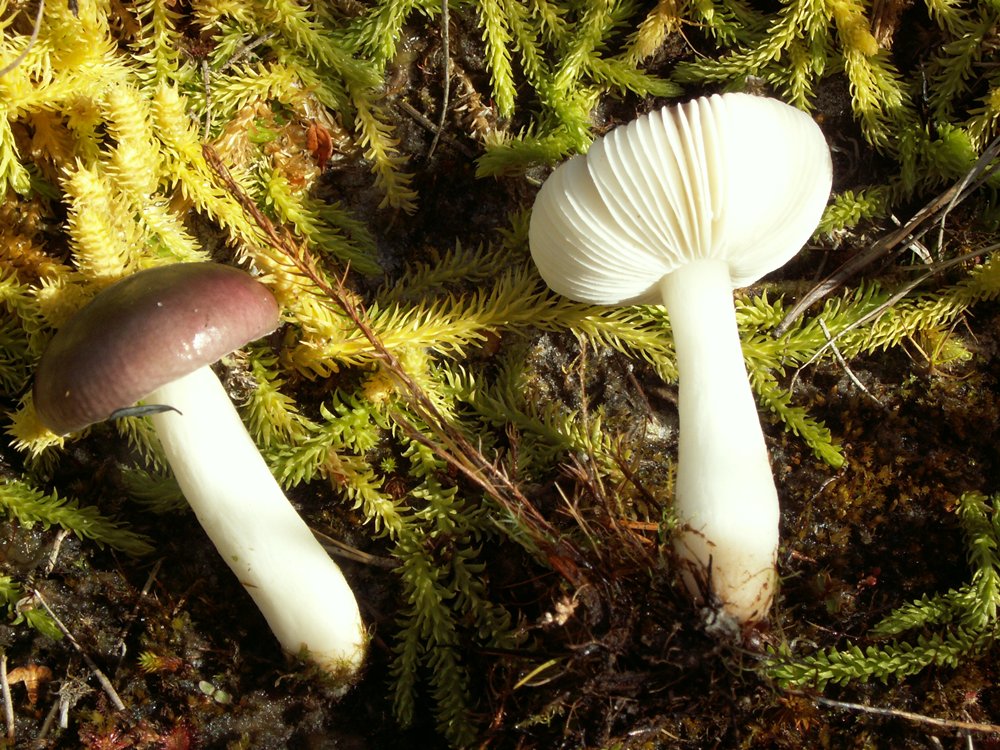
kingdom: Fungi
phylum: Basidiomycota
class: Agaricomycetes
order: Russulales
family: Russulaceae
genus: Russula
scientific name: Russula laccata
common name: klit-skørhat
